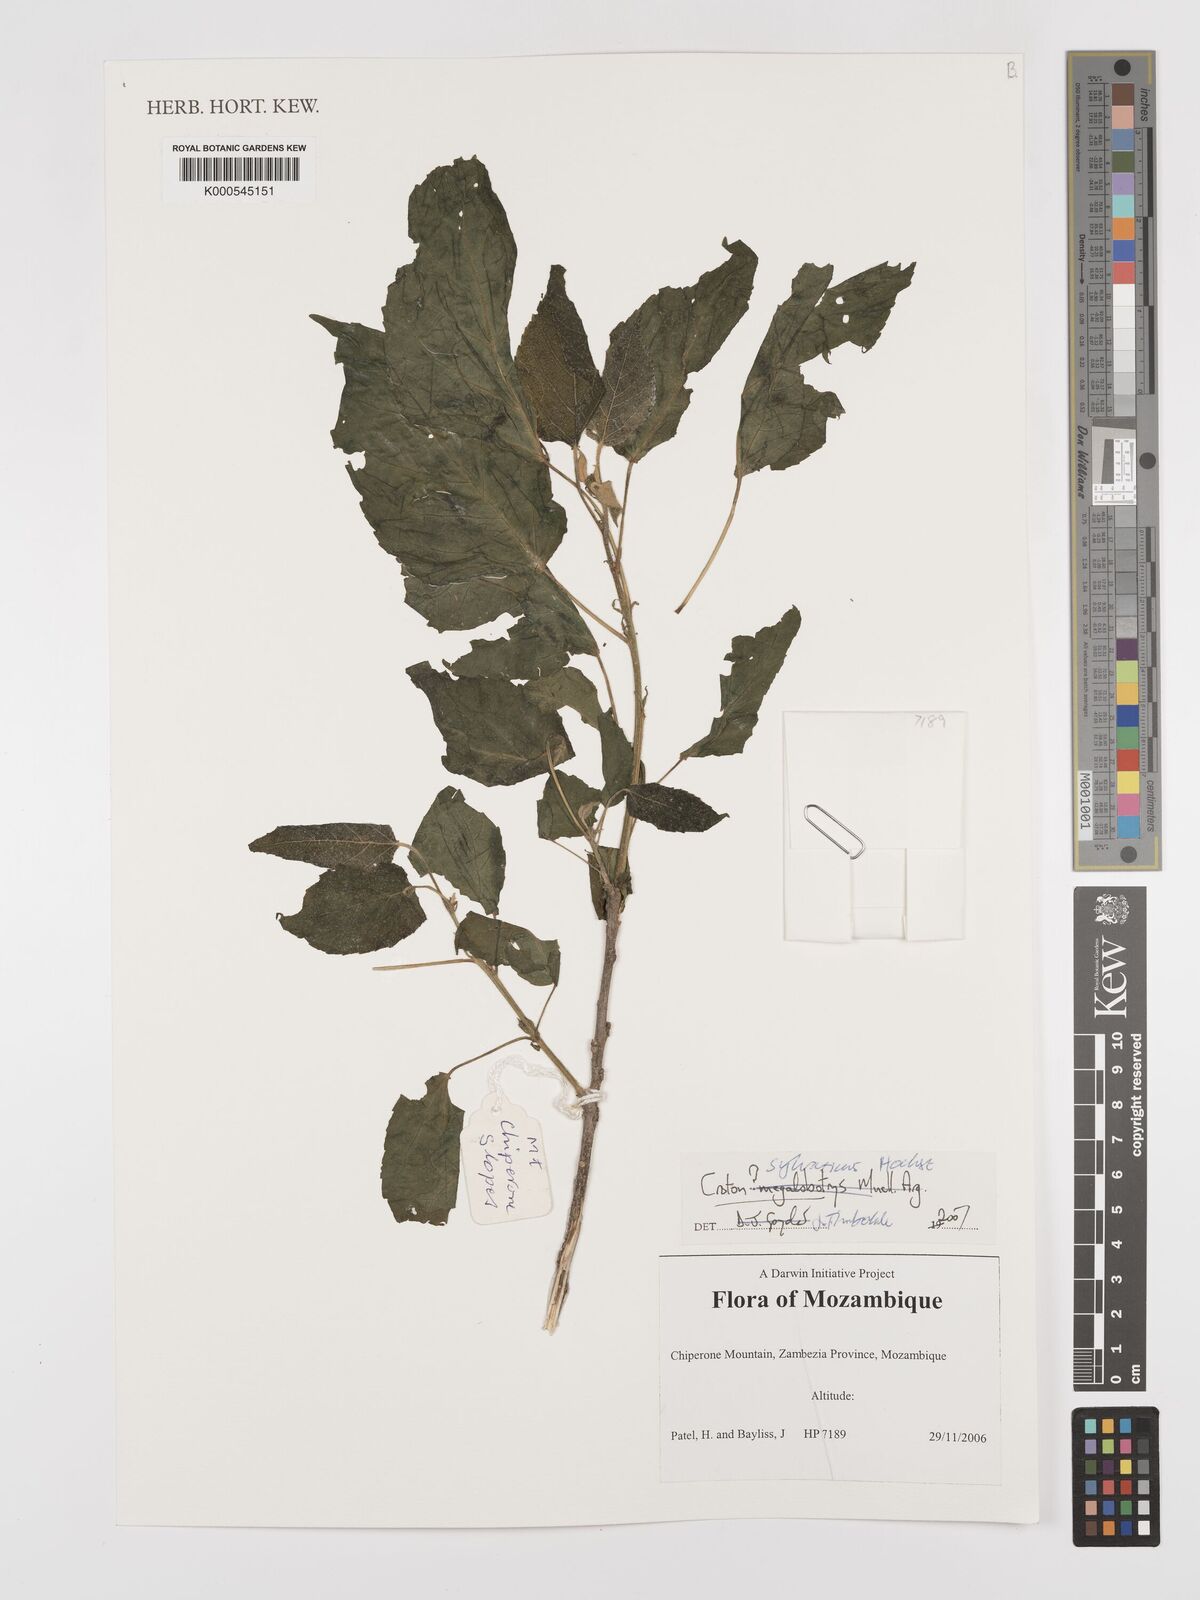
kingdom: Plantae
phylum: Tracheophyta
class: Magnoliopsida
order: Malpighiales
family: Euphorbiaceae
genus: Croton
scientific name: Croton sylvaticus
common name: Forest croton
